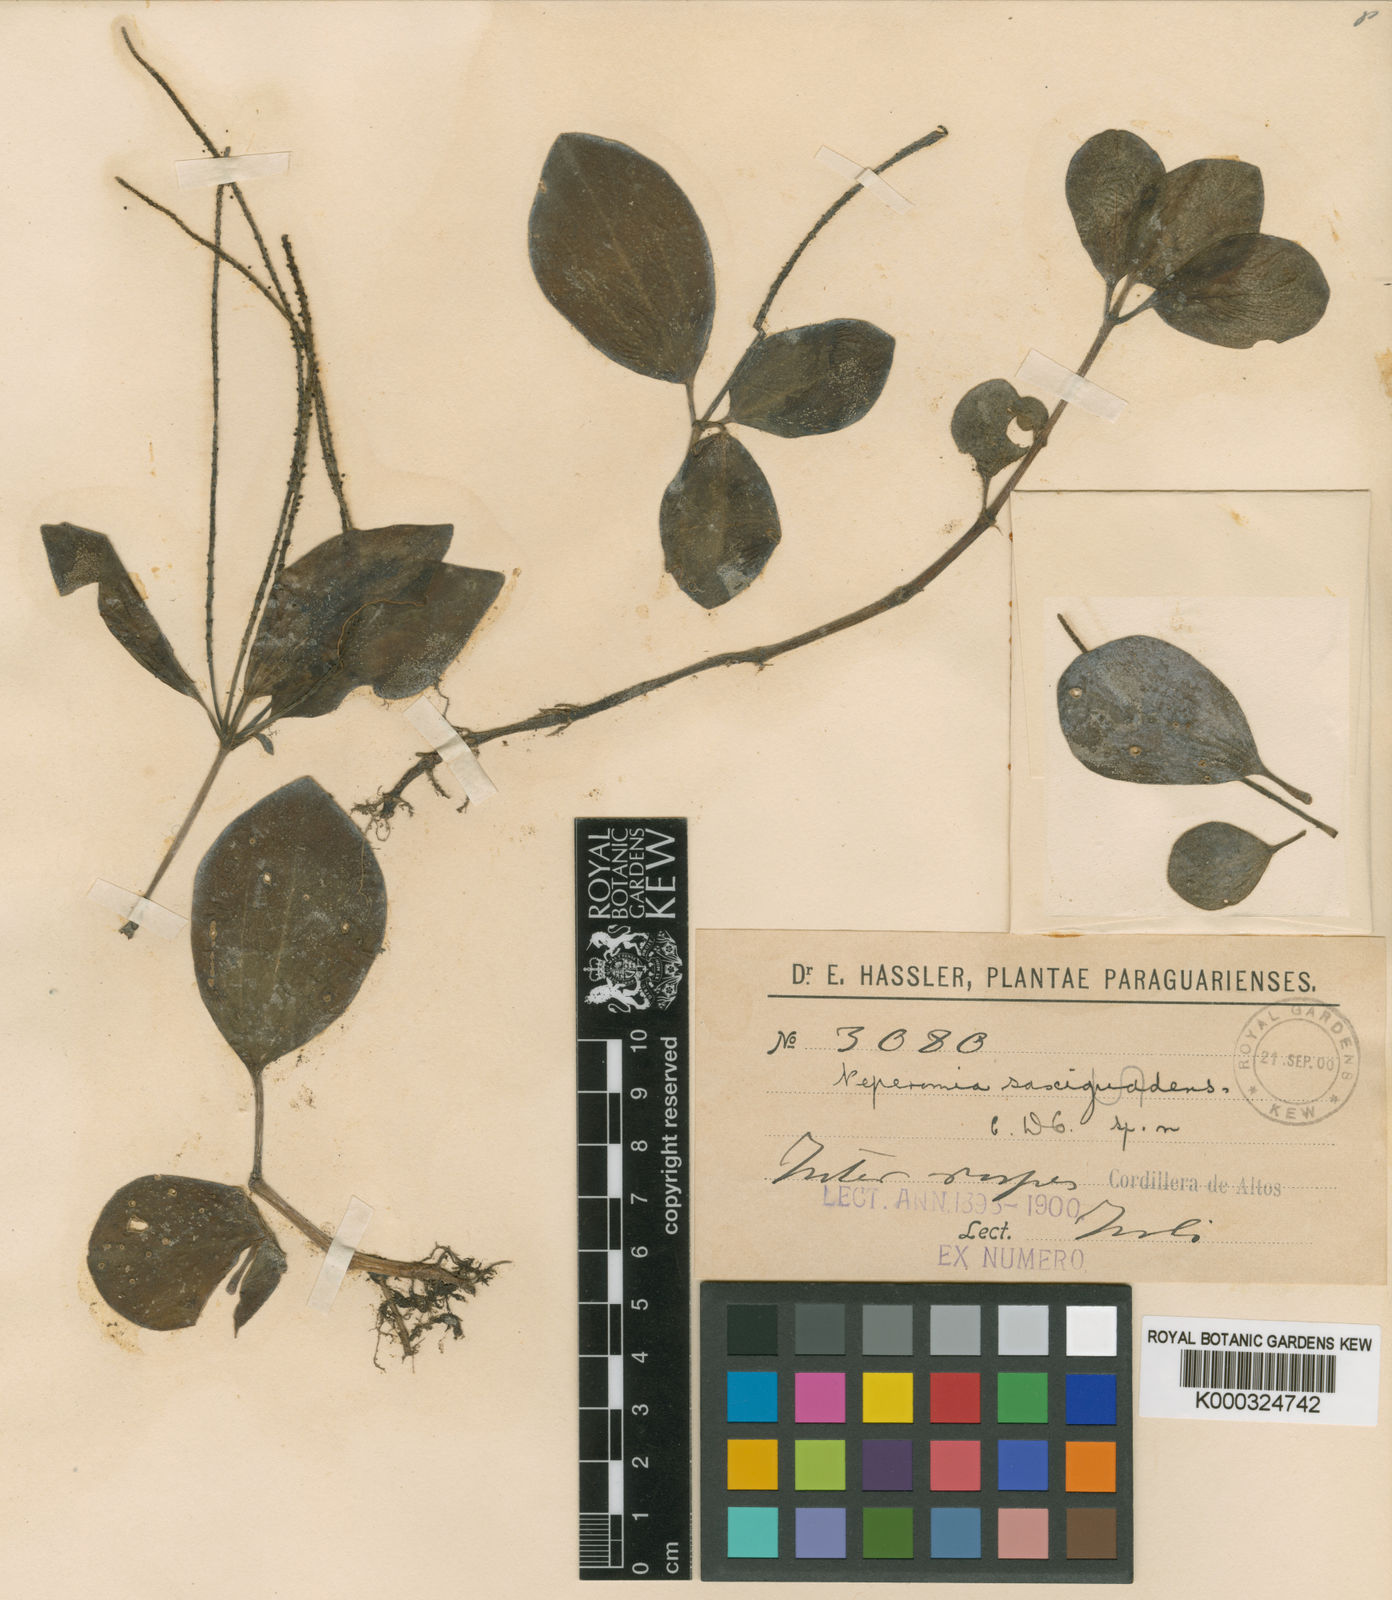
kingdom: Plantae
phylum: Tracheophyta
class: Magnoliopsida
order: Piperales
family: Piperaceae
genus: Peperomia
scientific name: Peperomia increscens
